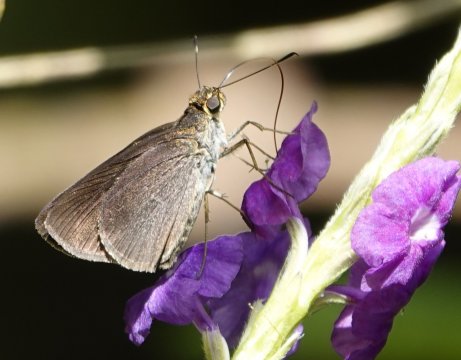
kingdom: Animalia
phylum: Arthropoda
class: Insecta
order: Lepidoptera
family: Hesperiidae
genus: Synapte
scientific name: Synapte silius
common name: Rain-forest Faceted-Skipper
